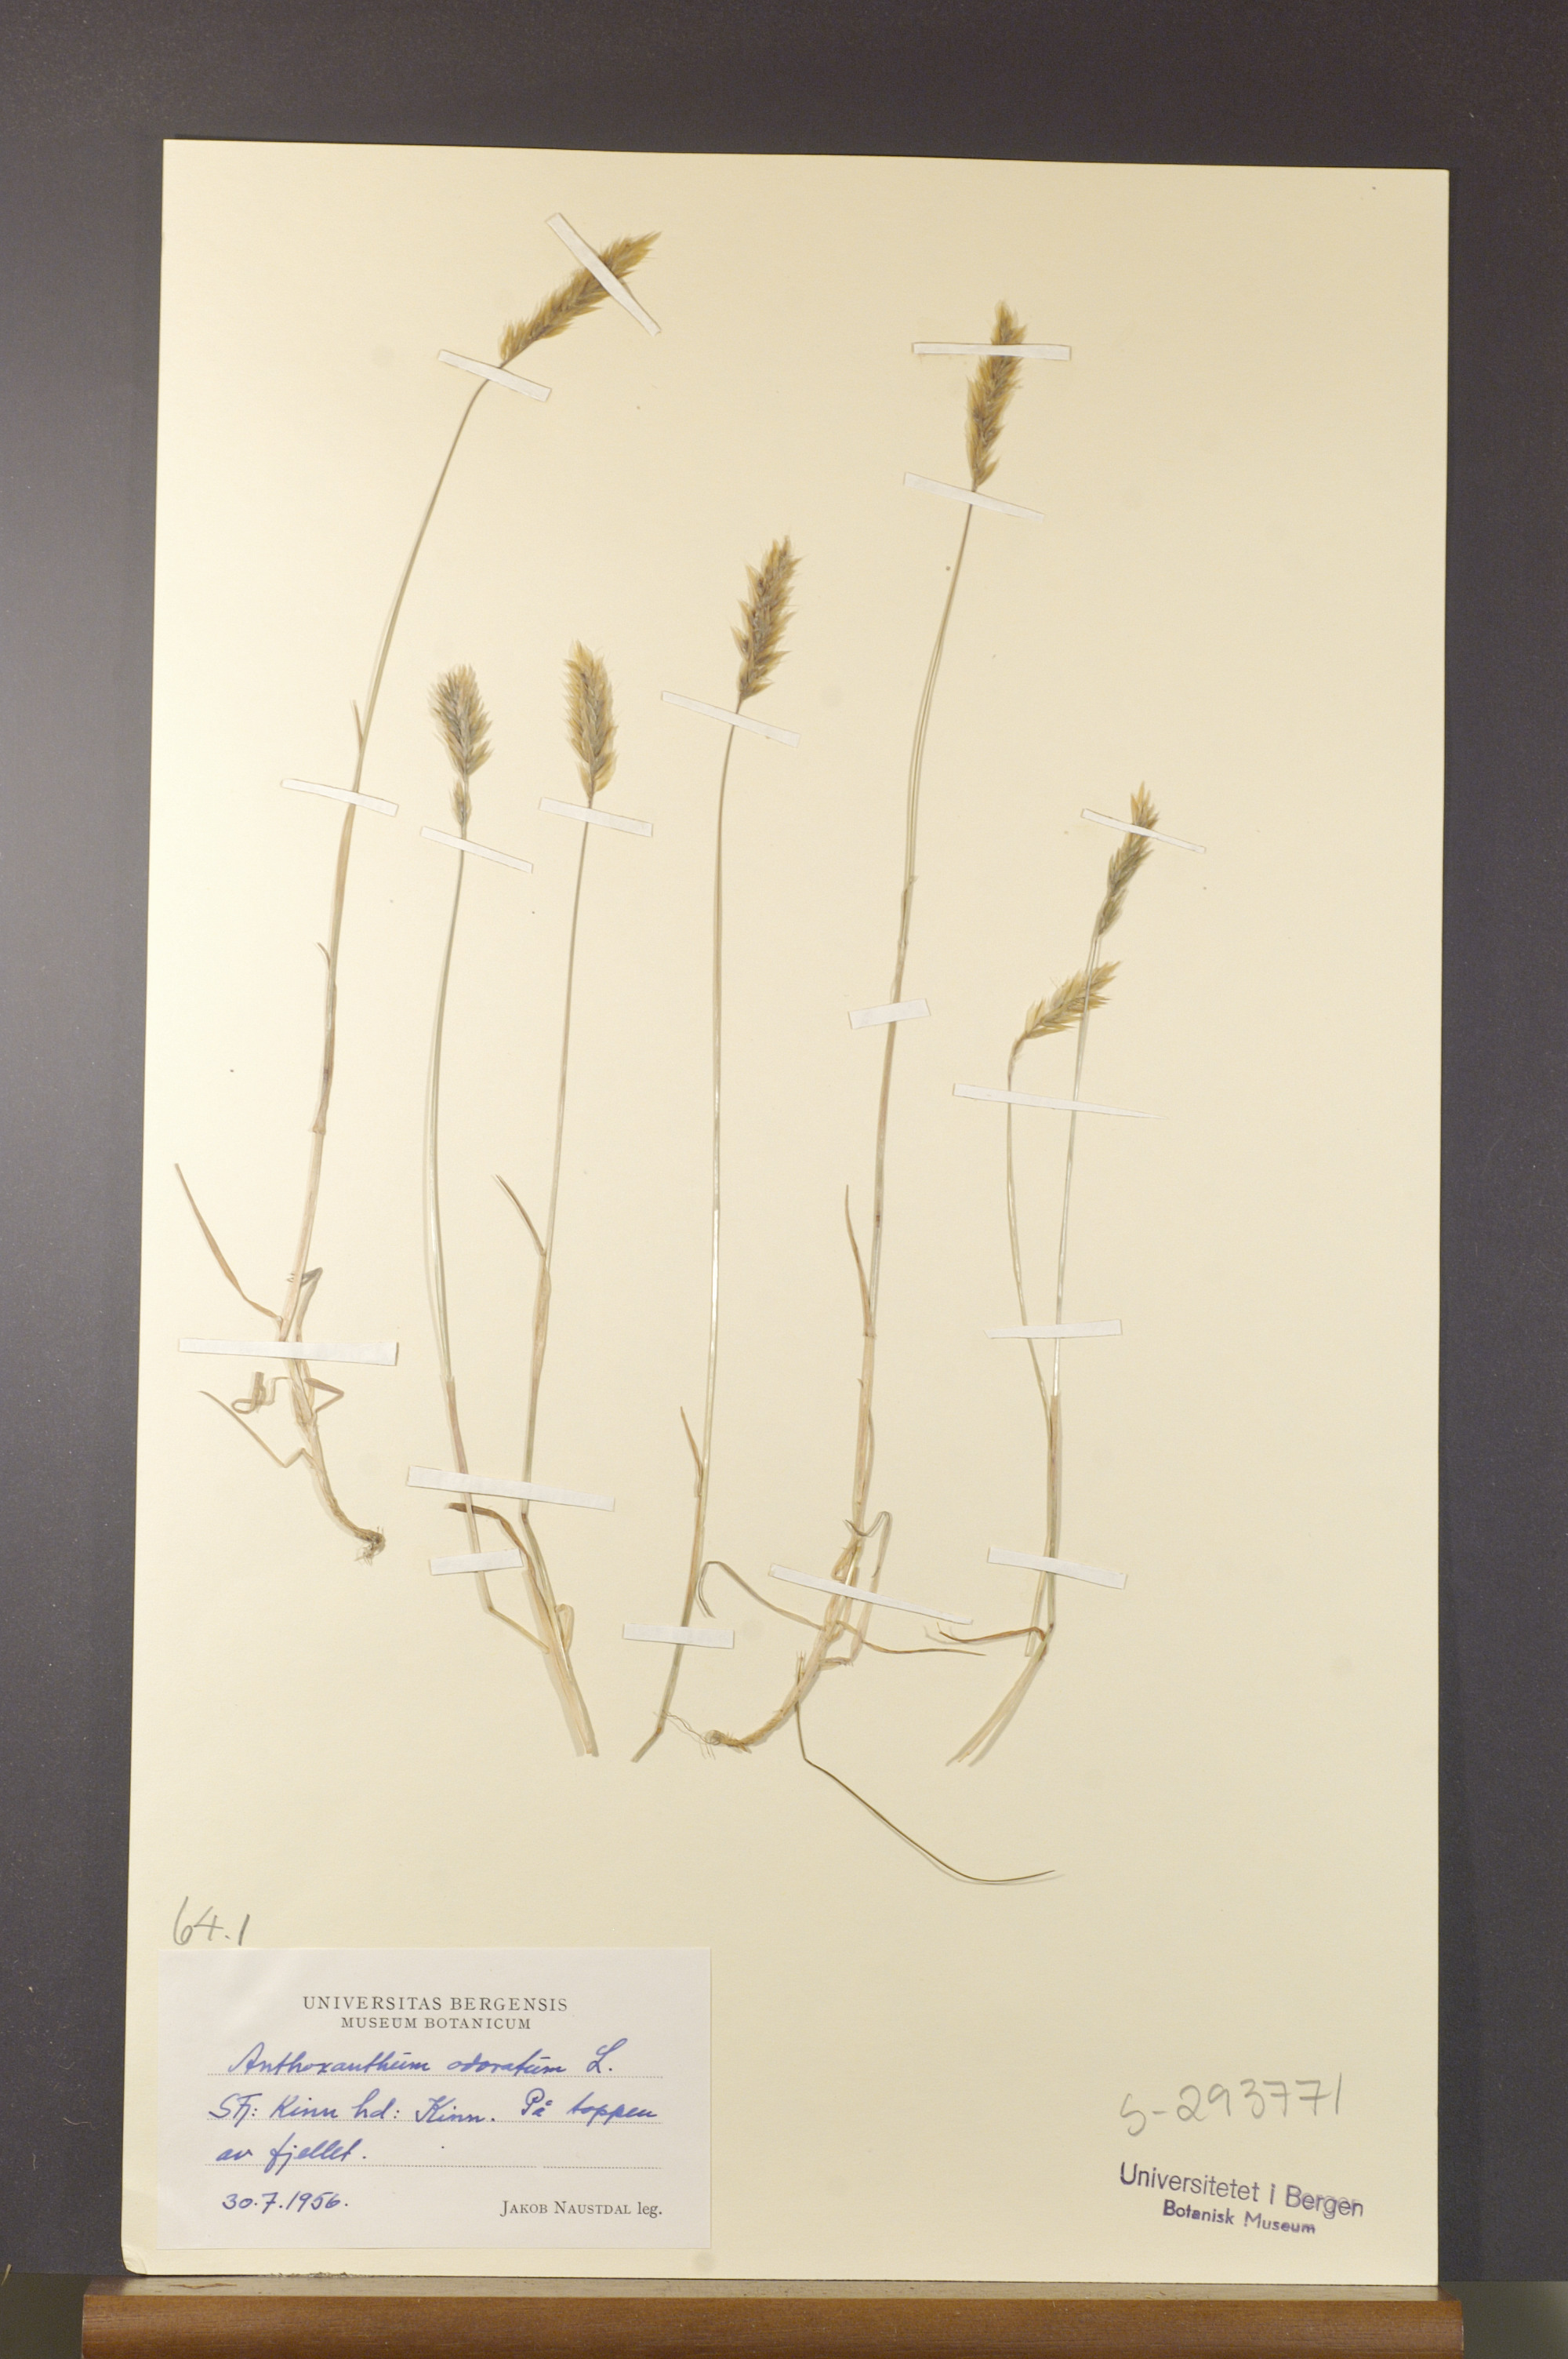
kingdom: Plantae
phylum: Tracheophyta
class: Liliopsida
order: Poales
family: Poaceae
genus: Anthoxanthum
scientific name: Anthoxanthum odoratum
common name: Sweet vernalgrass
